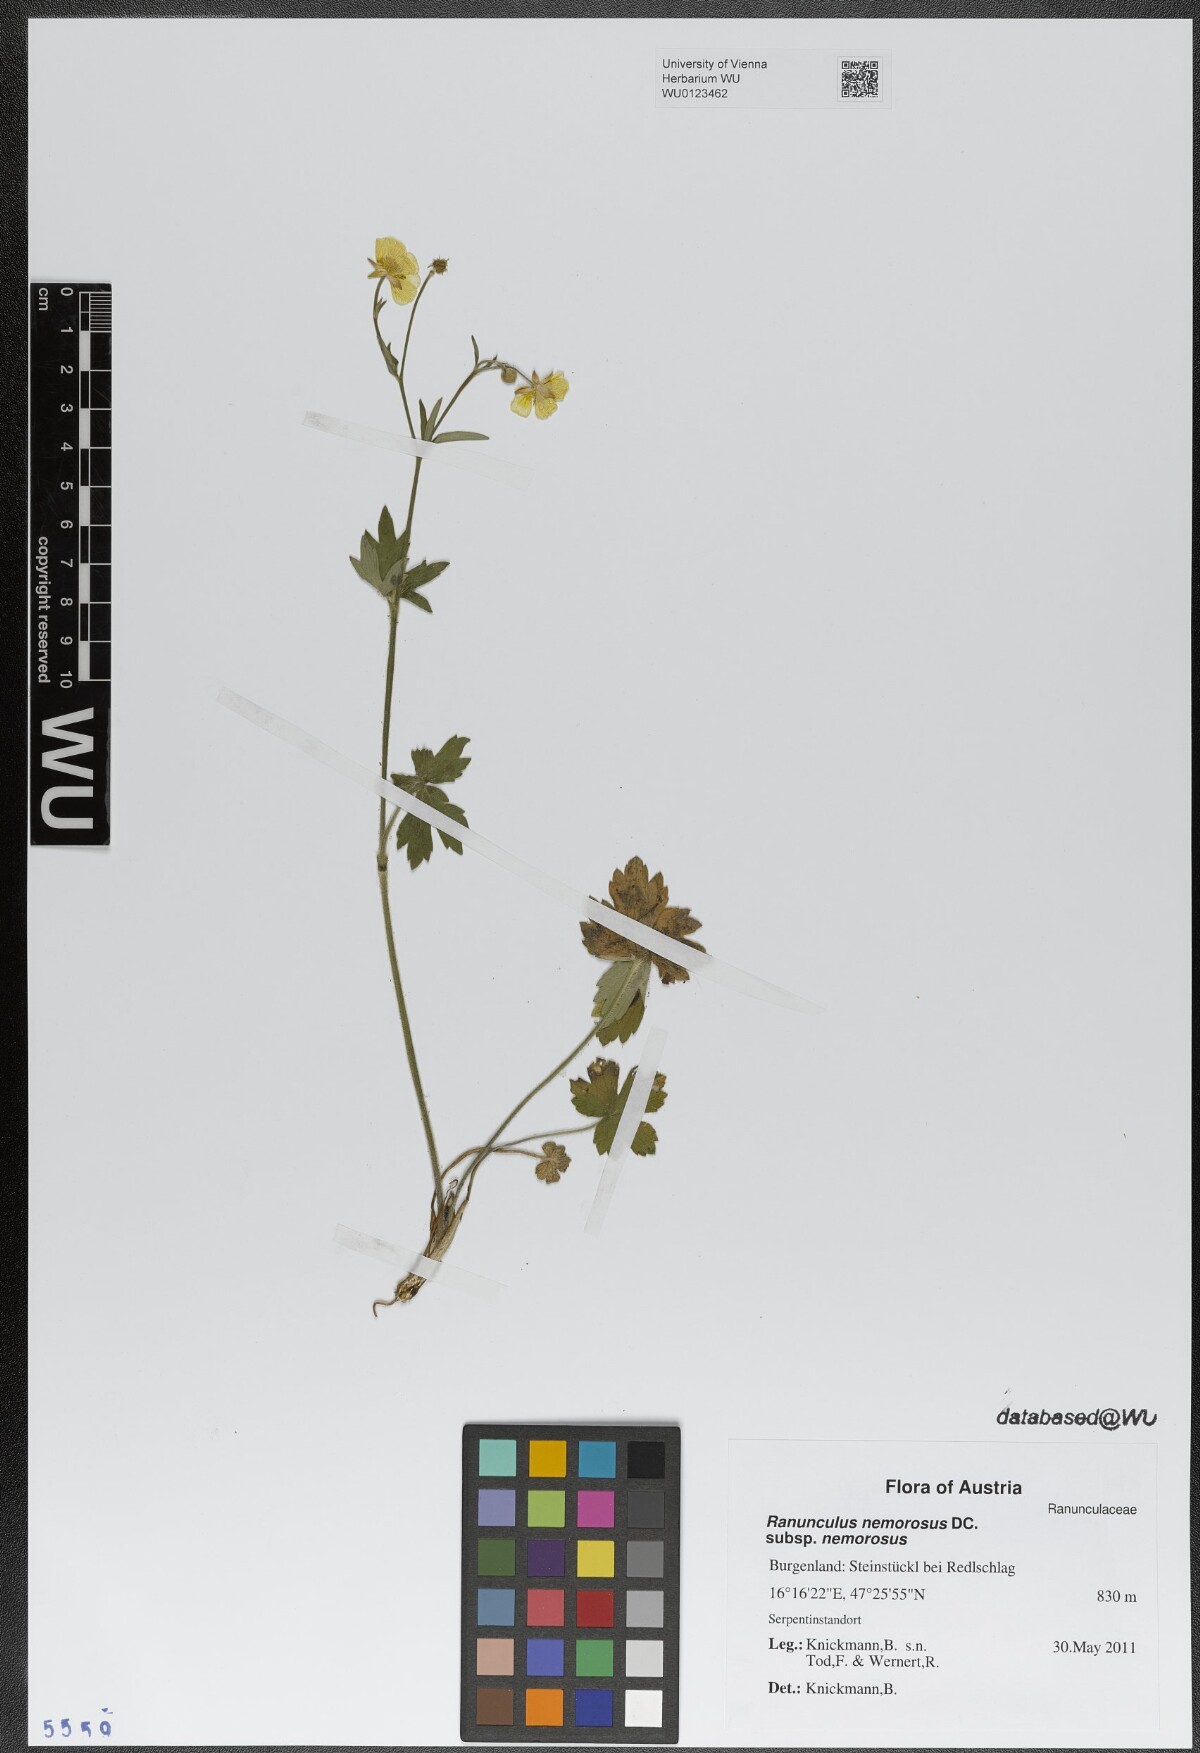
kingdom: Plantae
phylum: Tracheophyta
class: Magnoliopsida
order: Ranunculales
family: Ranunculaceae
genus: Ranunculus
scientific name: Ranunculus polyanthemos
